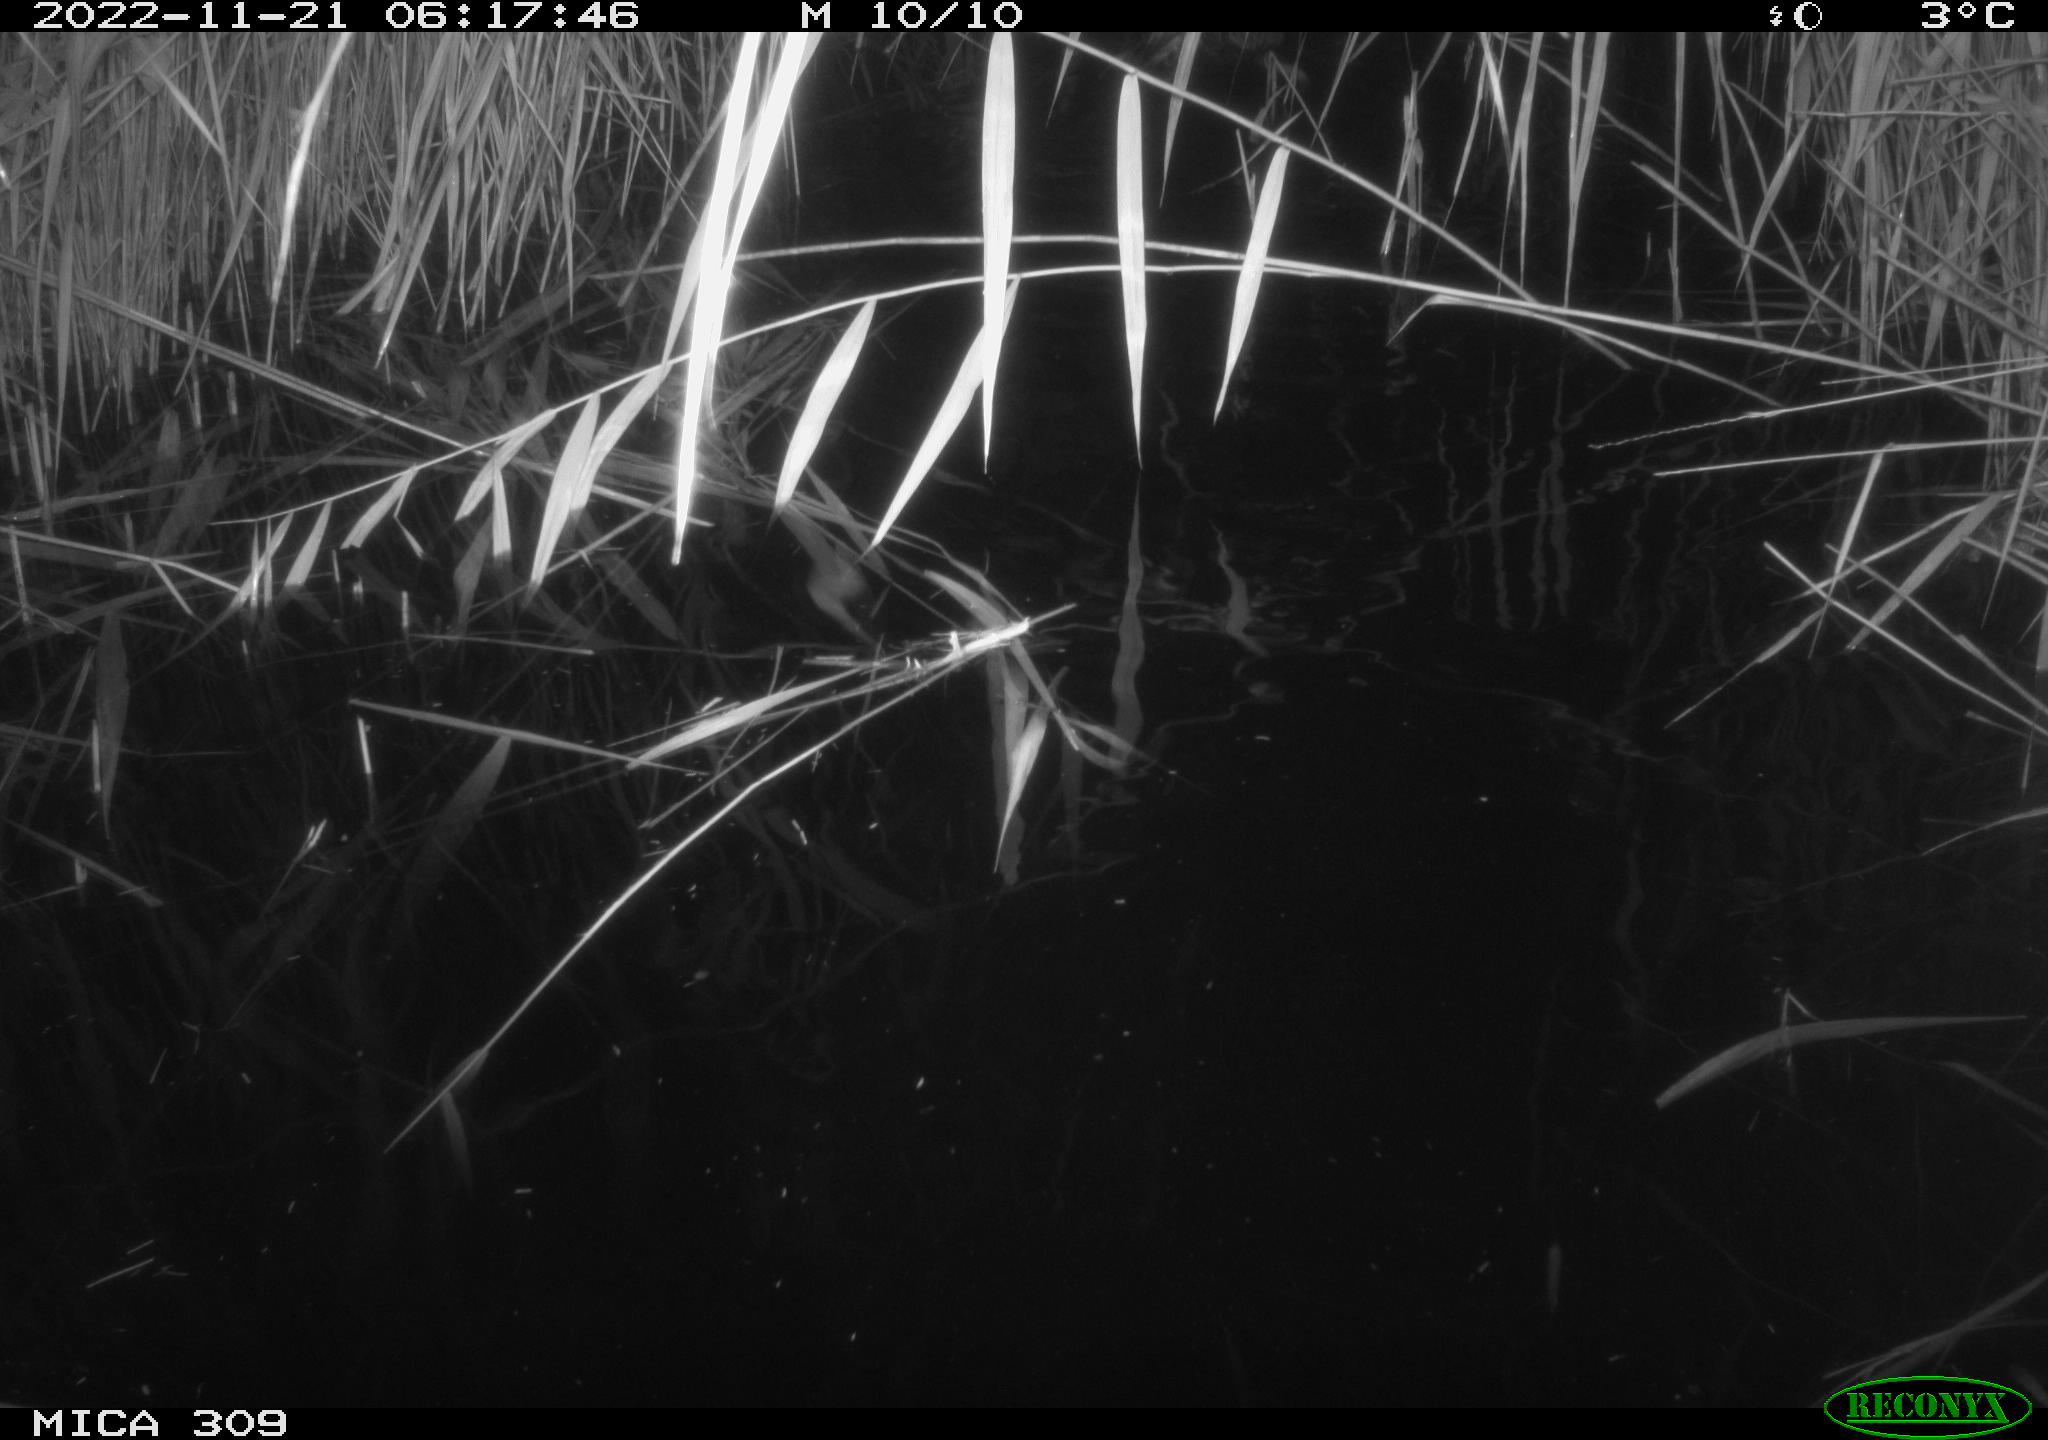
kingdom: Animalia
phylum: Chordata
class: Mammalia
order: Rodentia
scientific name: Rodentia
